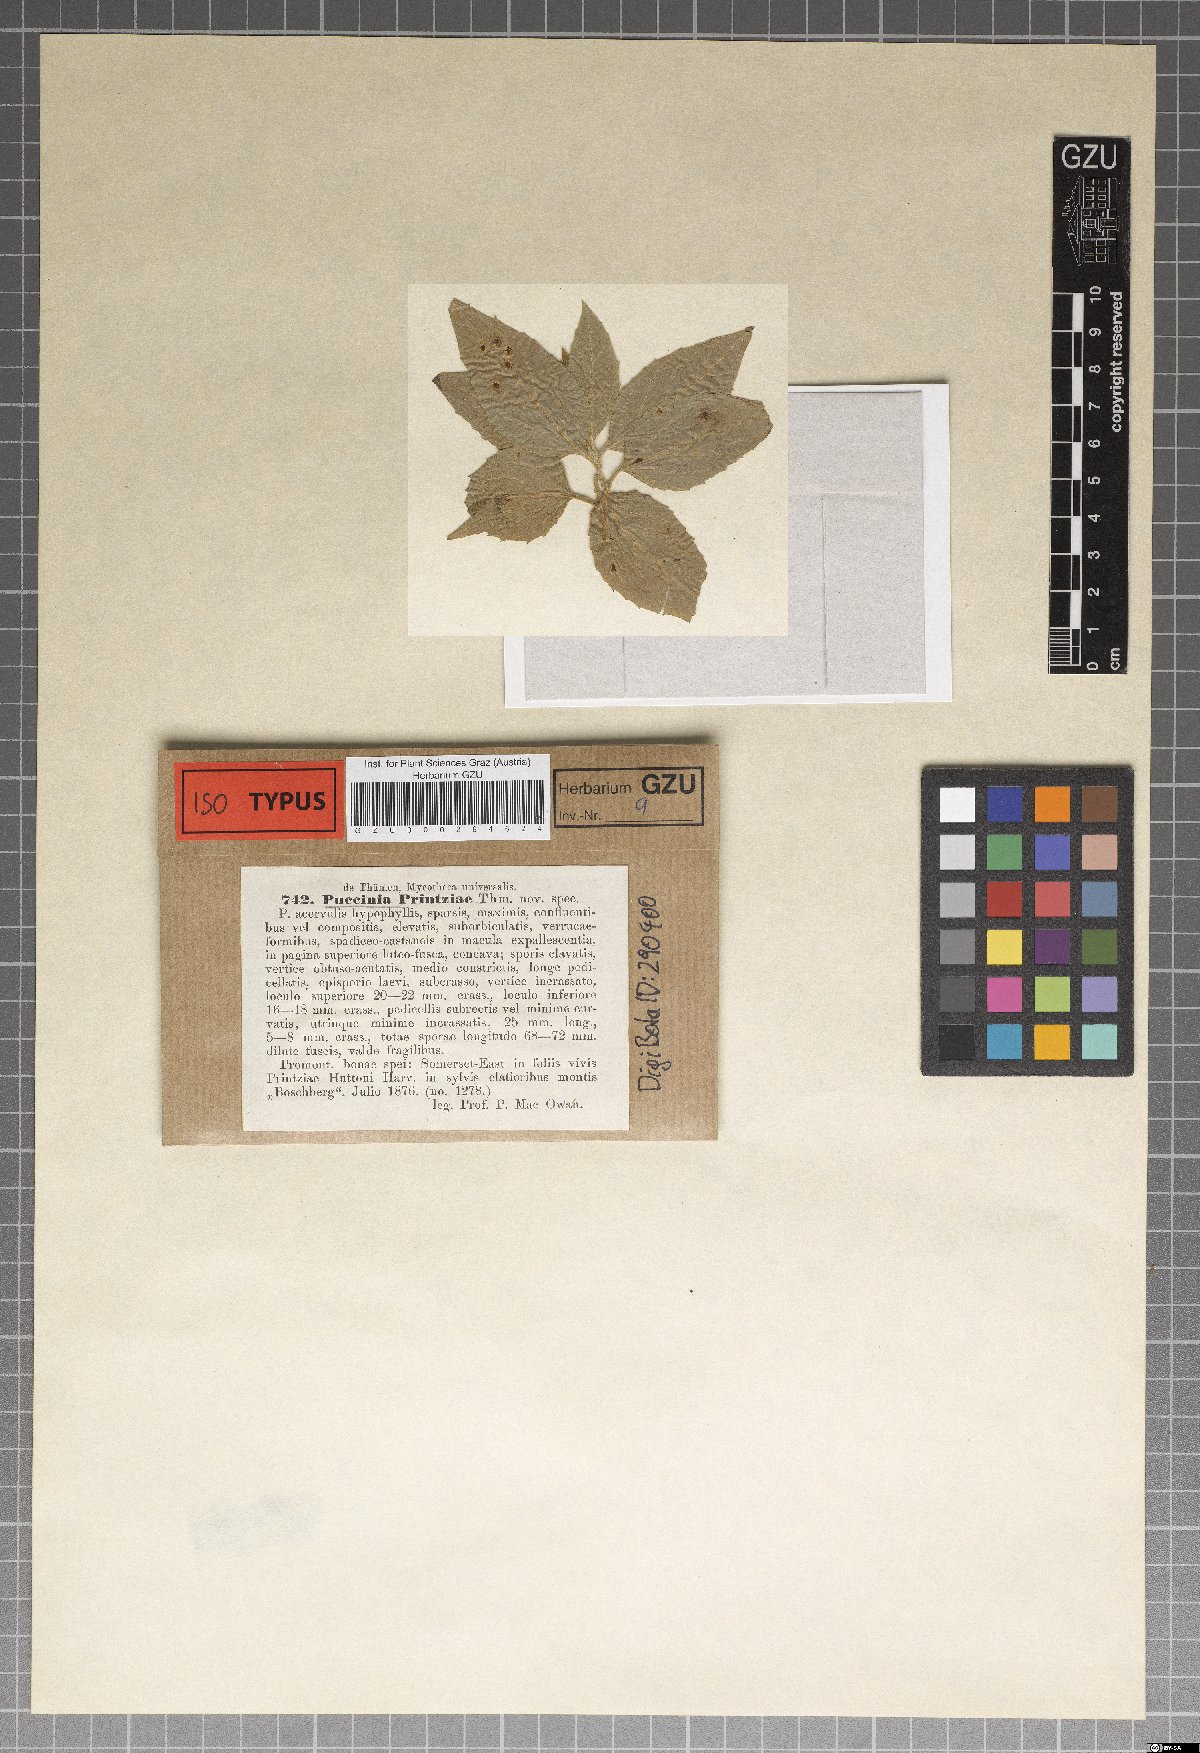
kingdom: Fungi
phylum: Basidiomycota
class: Pucciniomycetes
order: Pucciniales
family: Pucciniaceae
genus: Puccinia
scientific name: Puccinia
